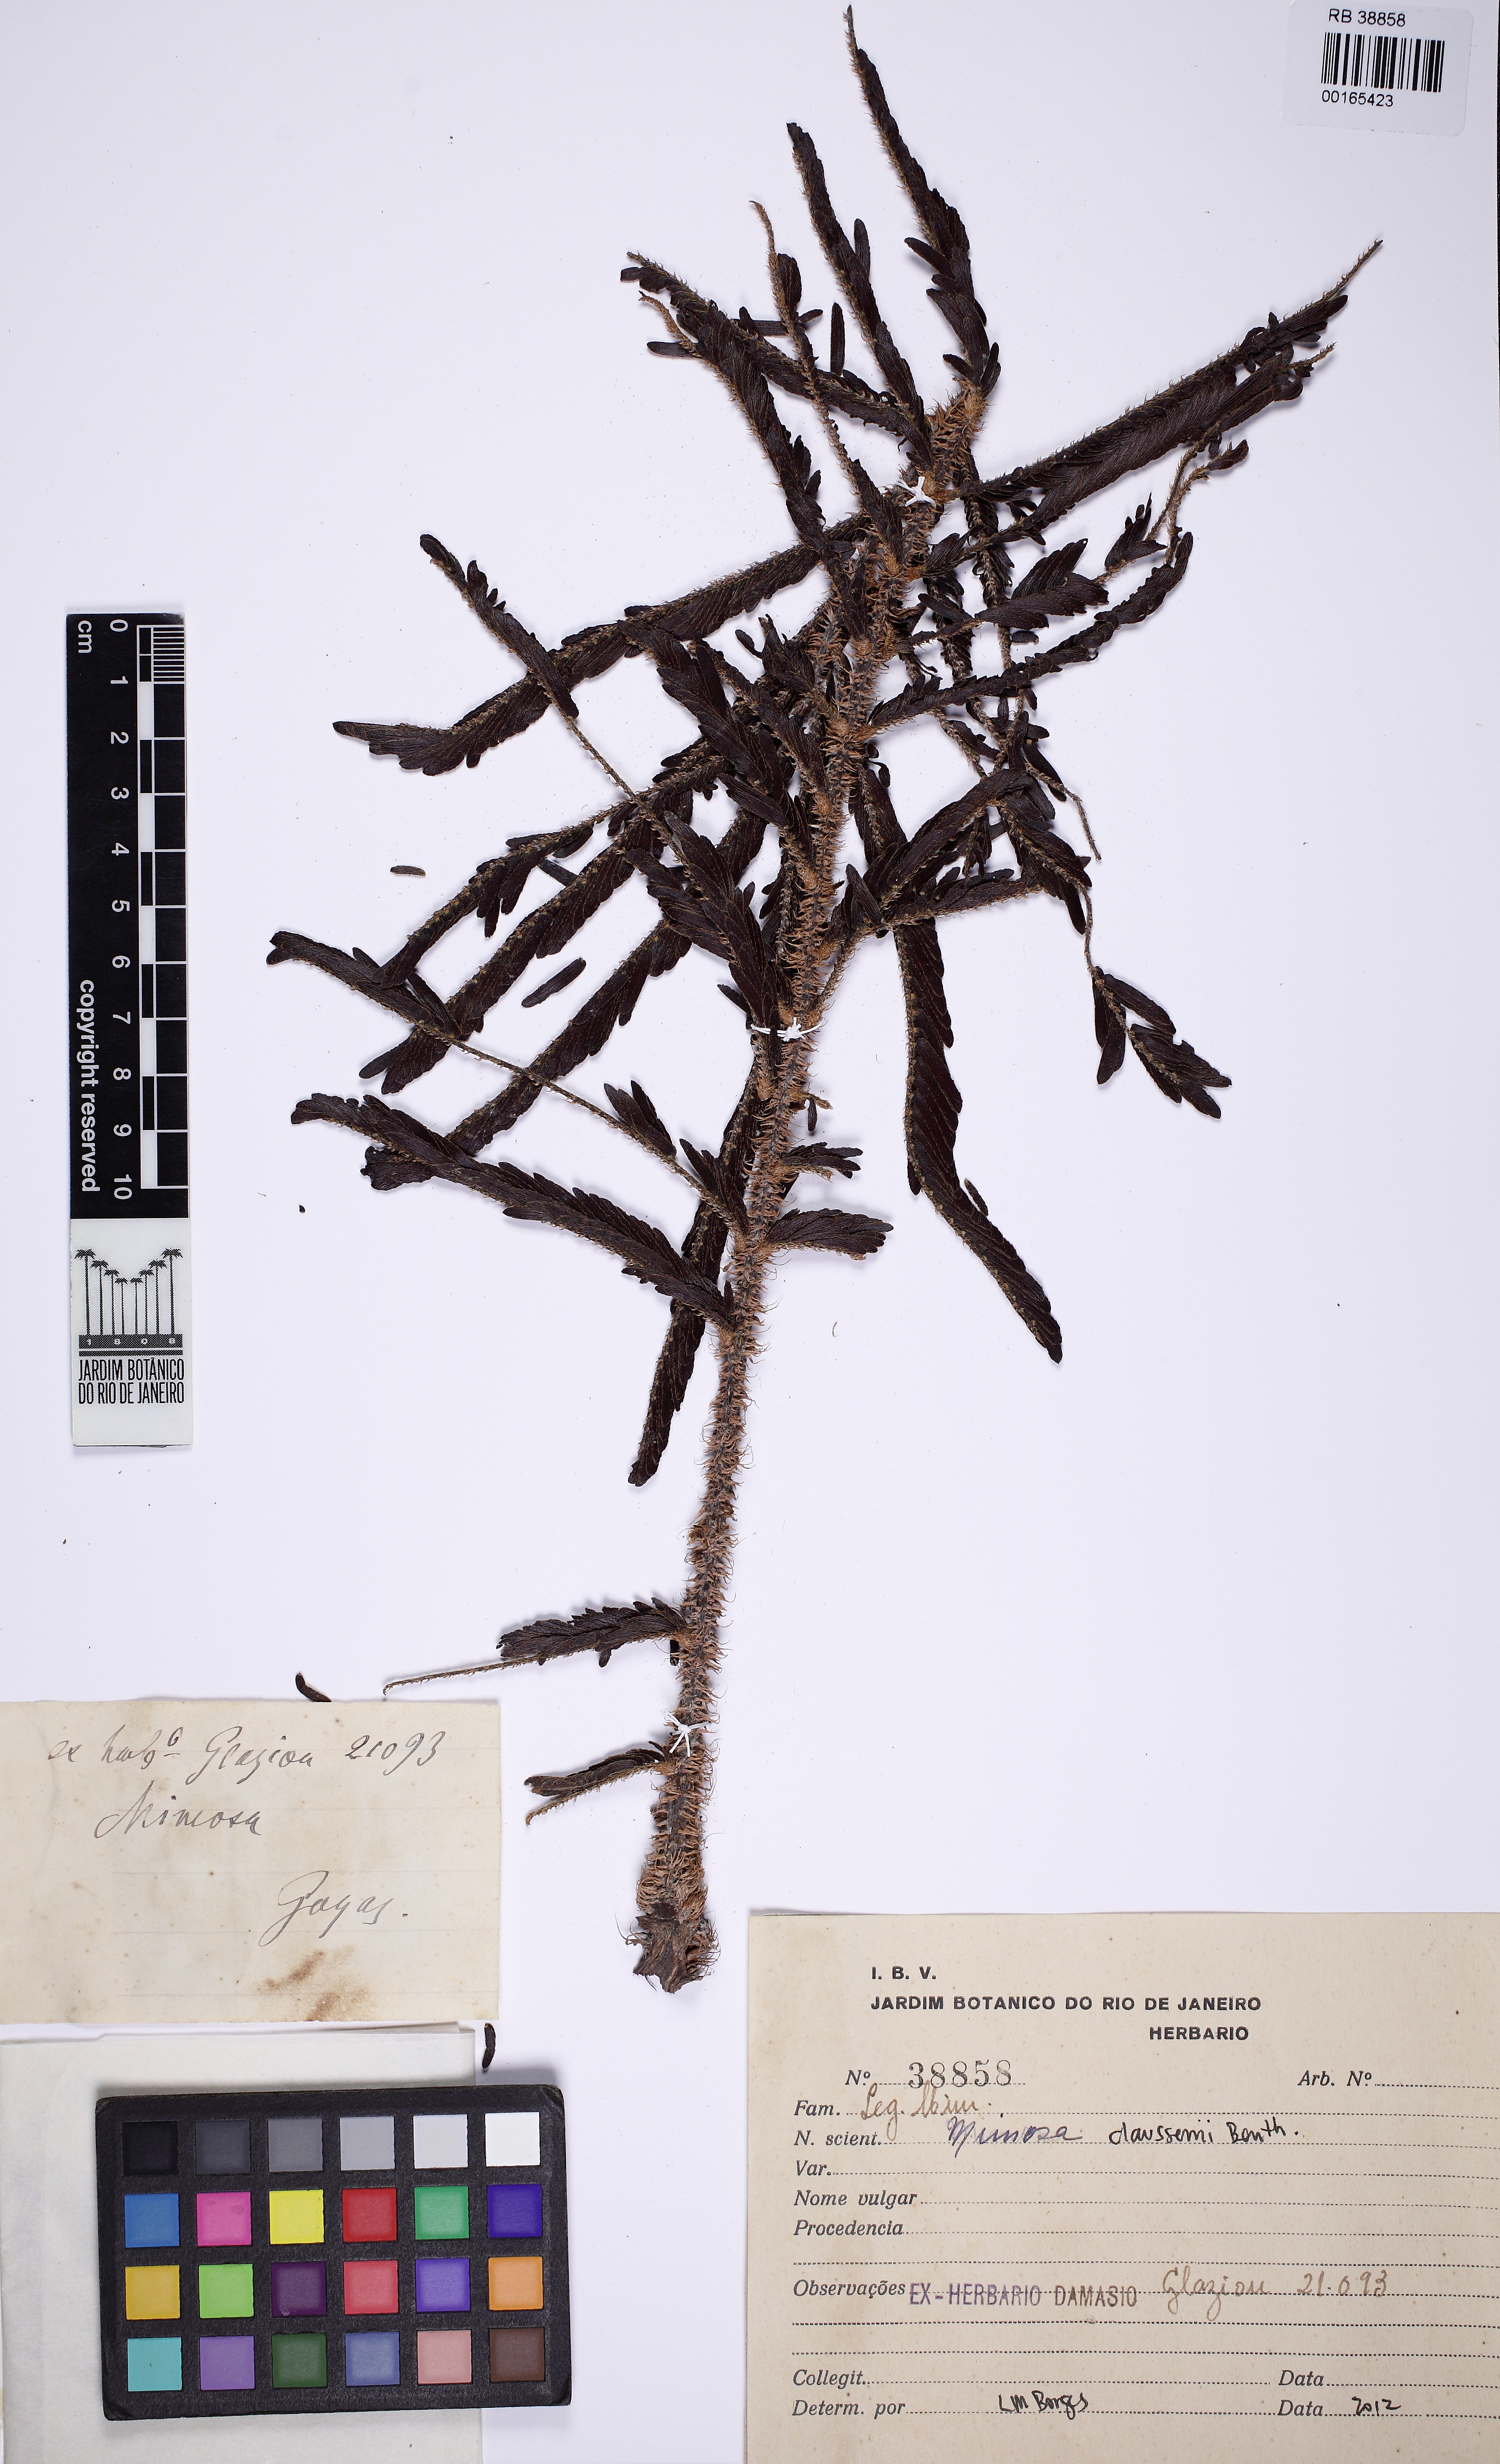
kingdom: Plantae
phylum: Tracheophyta
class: Magnoliopsida
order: Fabales
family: Fabaceae
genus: Mimosa
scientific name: Mimosa claussenii
